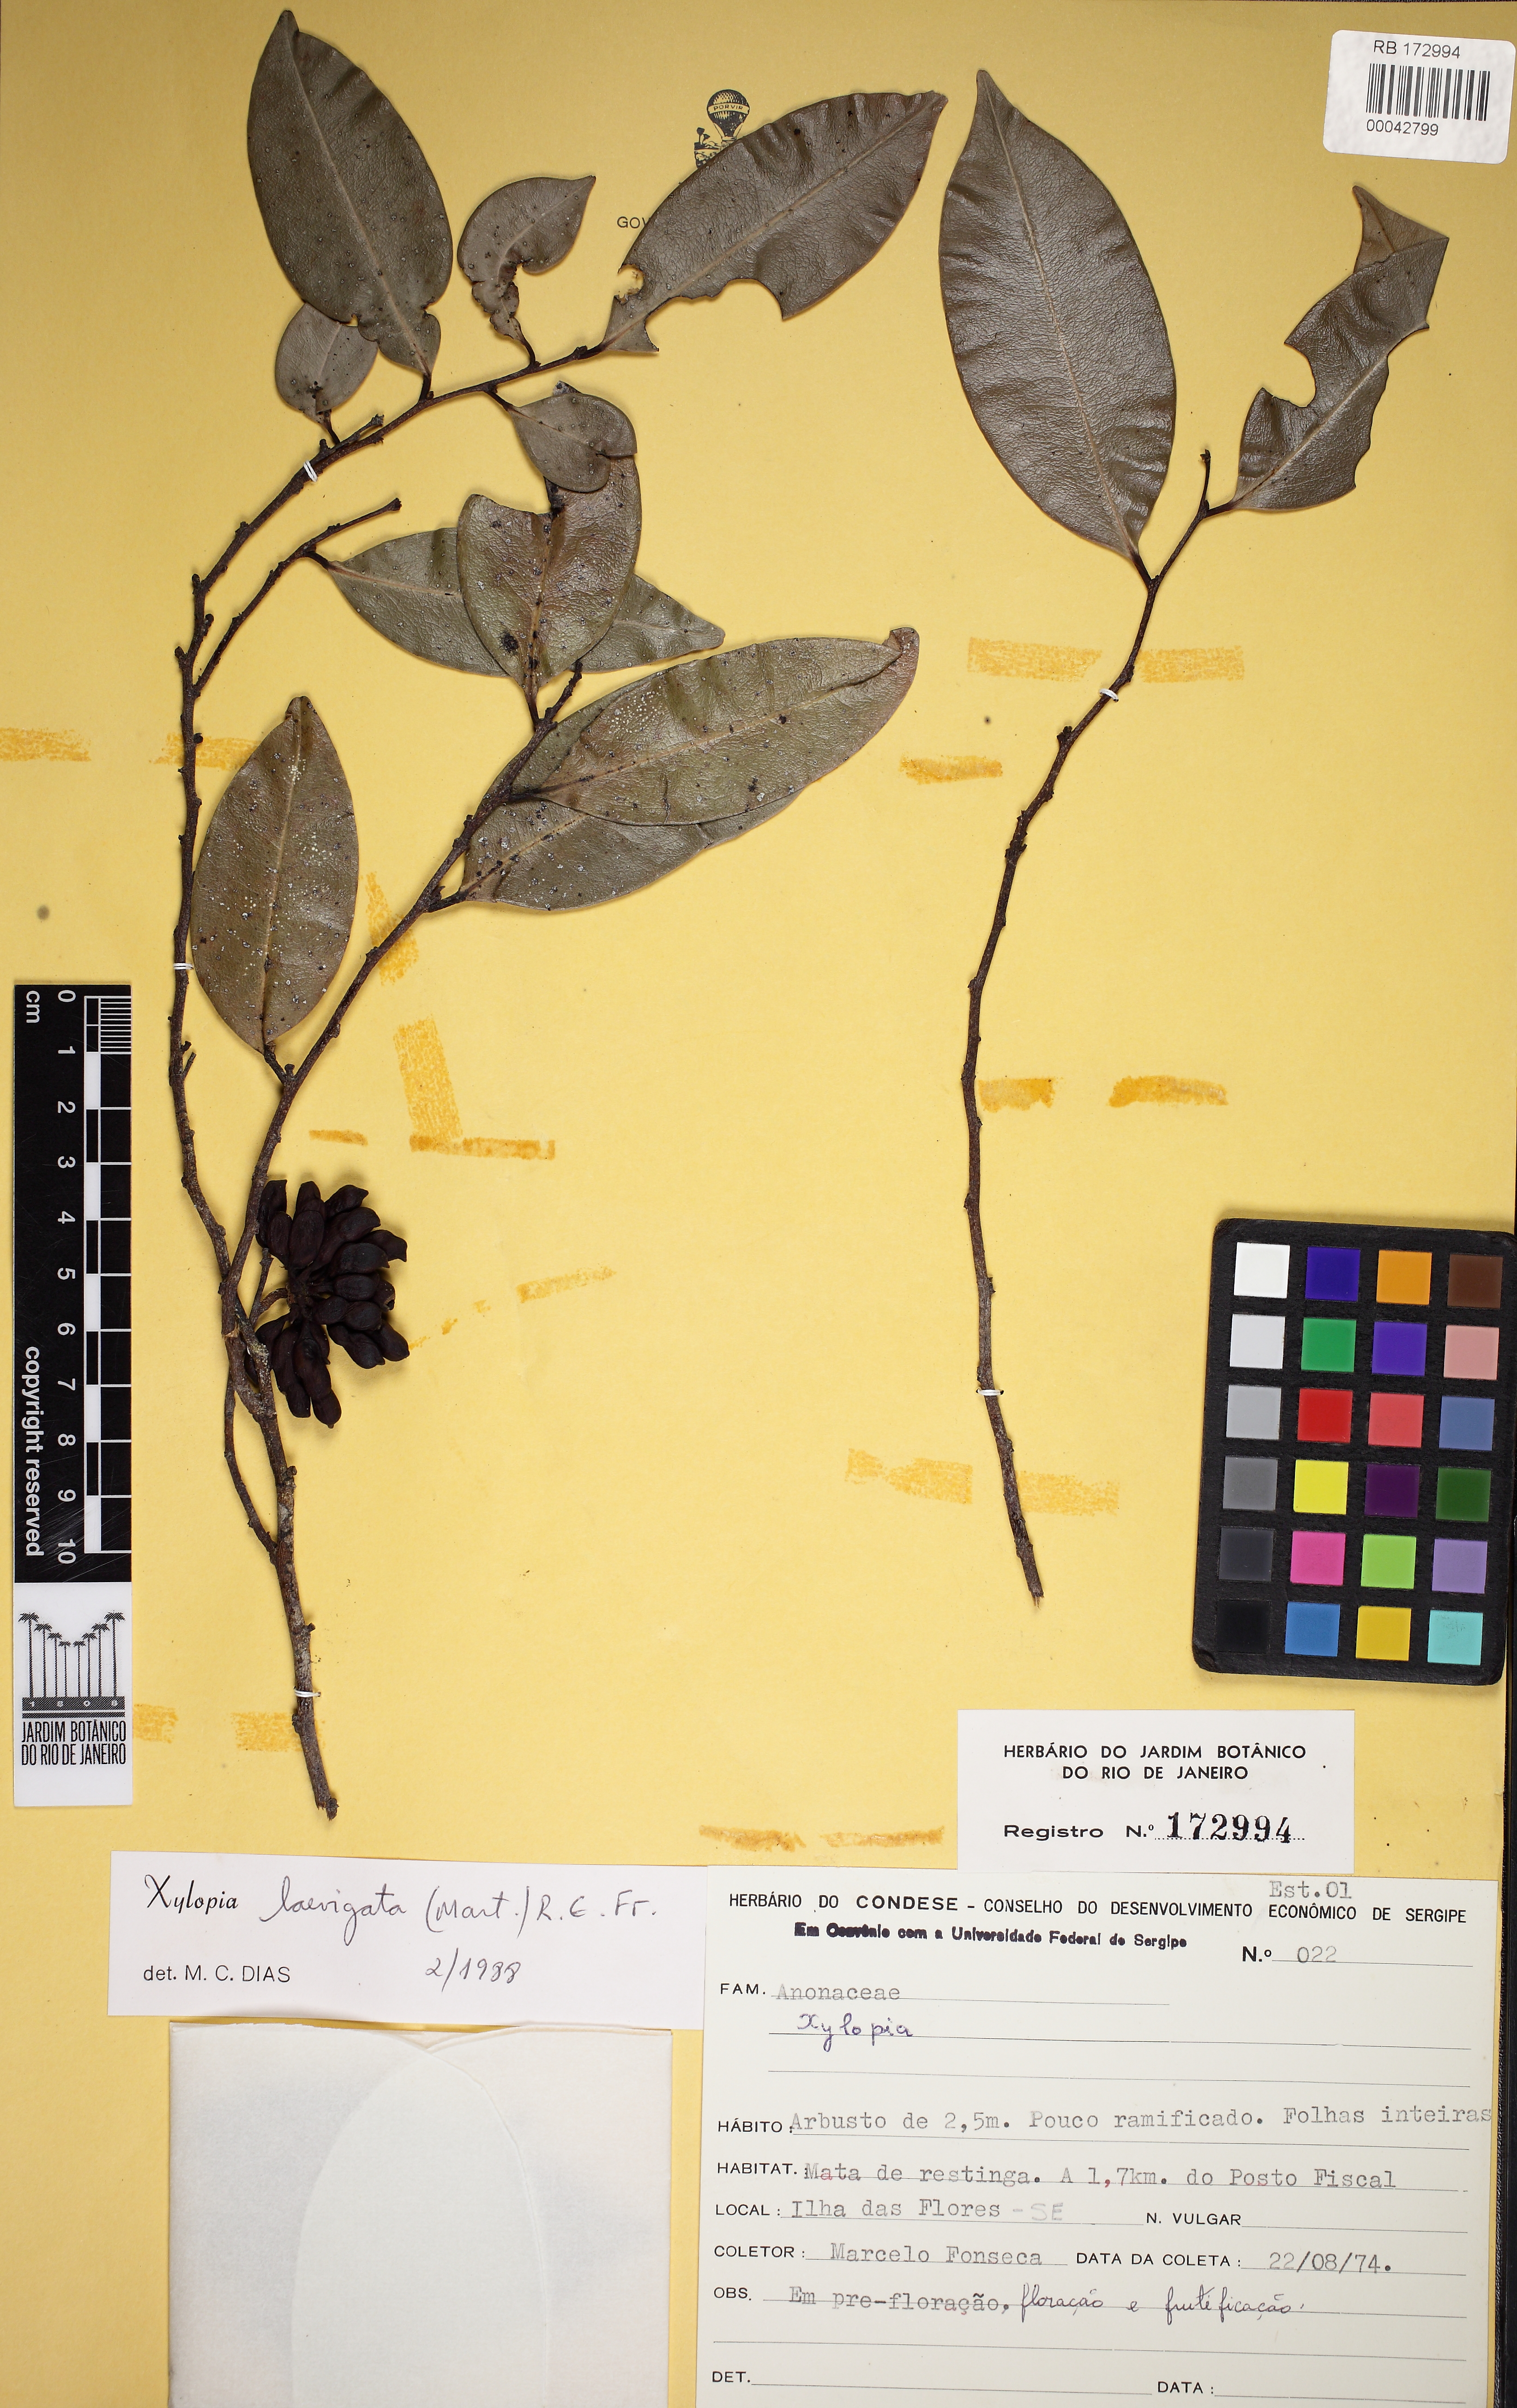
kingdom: Plantae
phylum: Tracheophyta
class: Magnoliopsida
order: Magnoliales
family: Annonaceae
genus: Xylopia
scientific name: Xylopia laevigata
